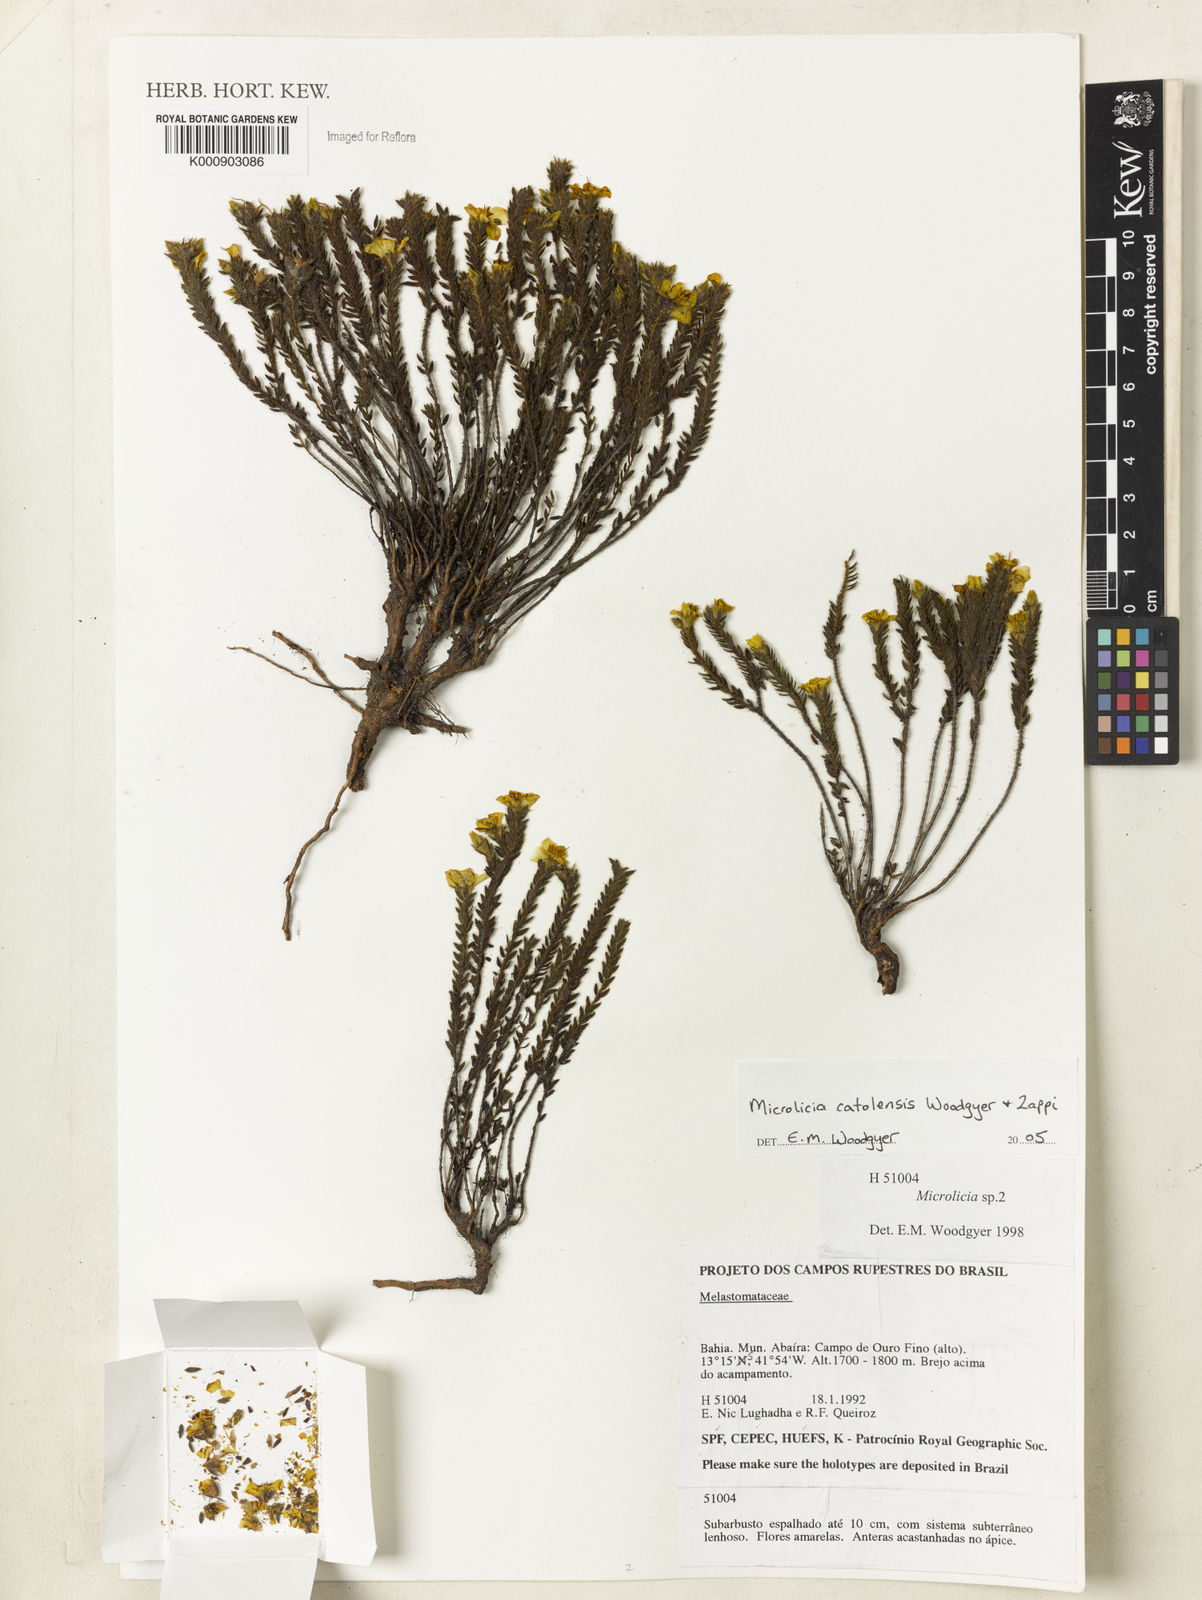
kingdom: Plantae
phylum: Tracheophyta
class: Magnoliopsida
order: Myrtales
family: Melastomataceae
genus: Microlicia
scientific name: Microlicia catolensis
